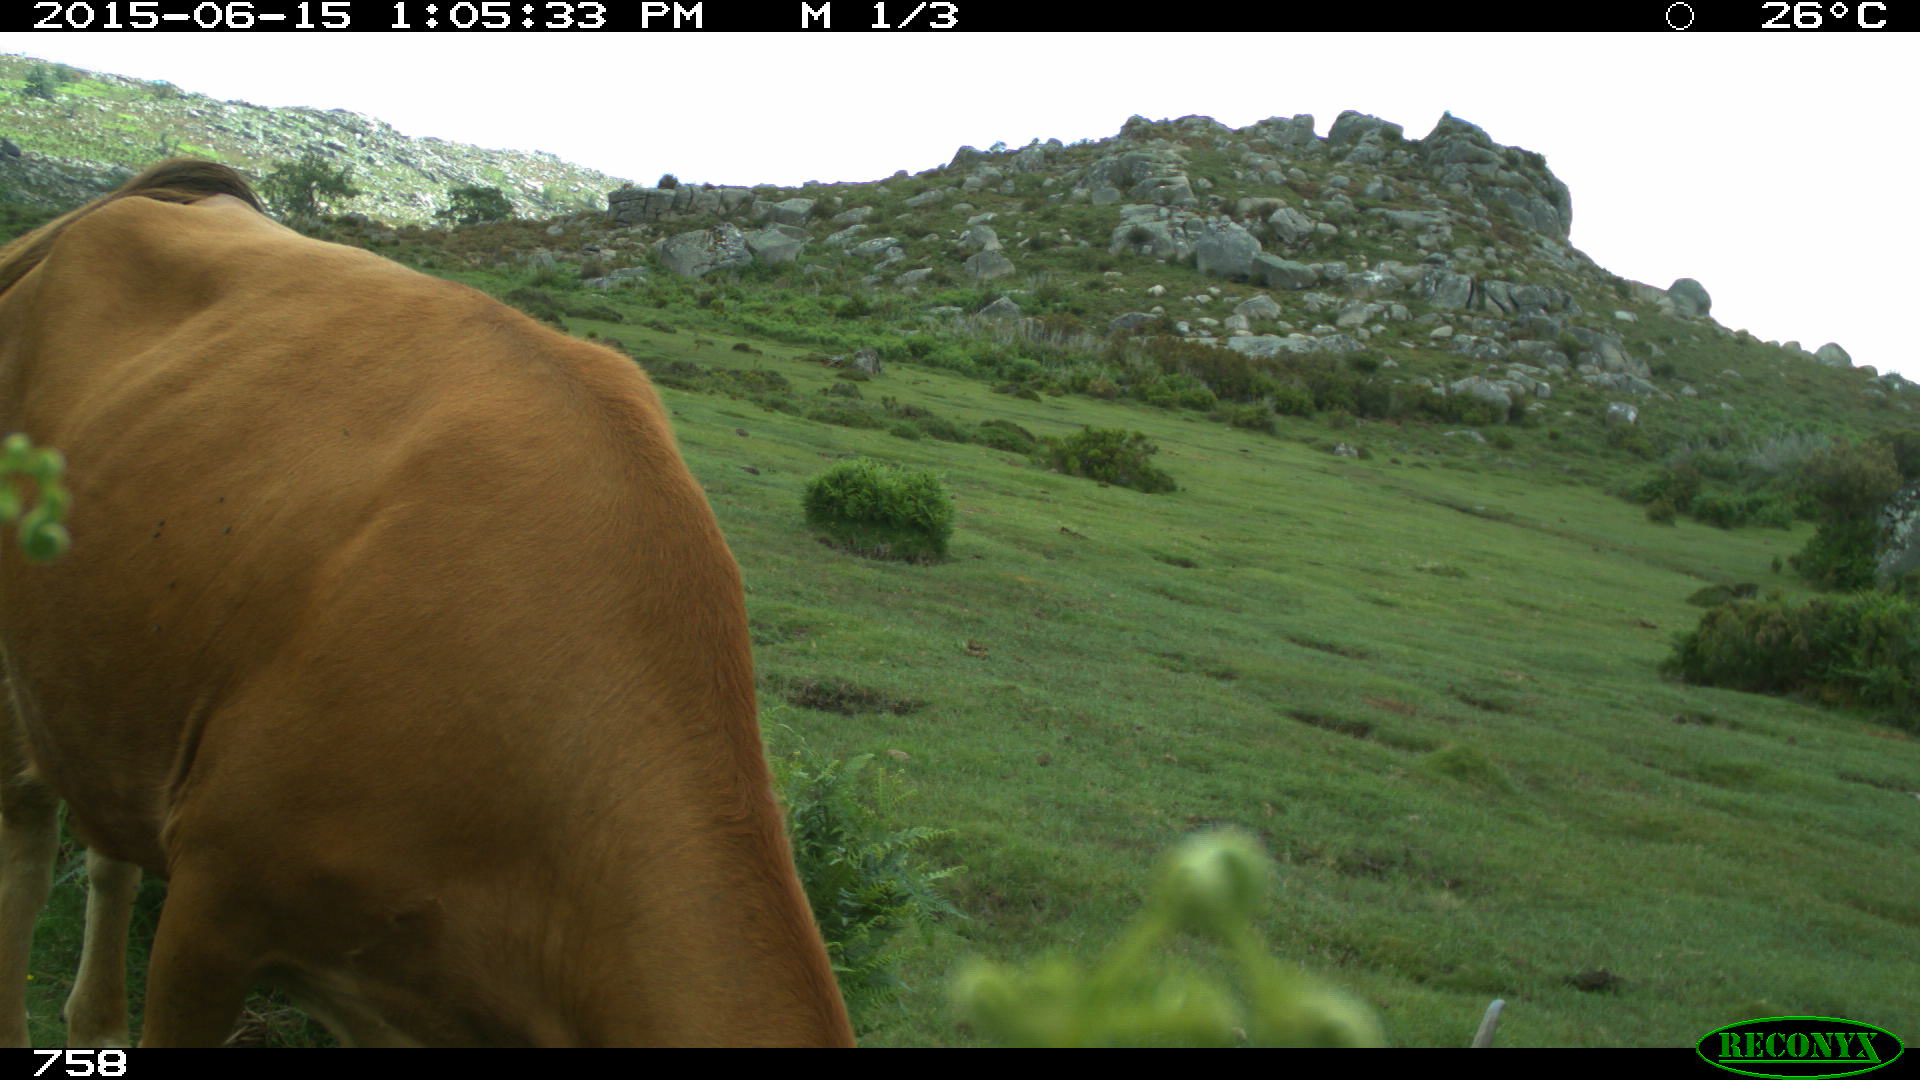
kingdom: Animalia
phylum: Chordata
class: Mammalia
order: Artiodactyla
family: Bovidae
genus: Bos
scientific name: Bos taurus
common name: Domesticated cattle
